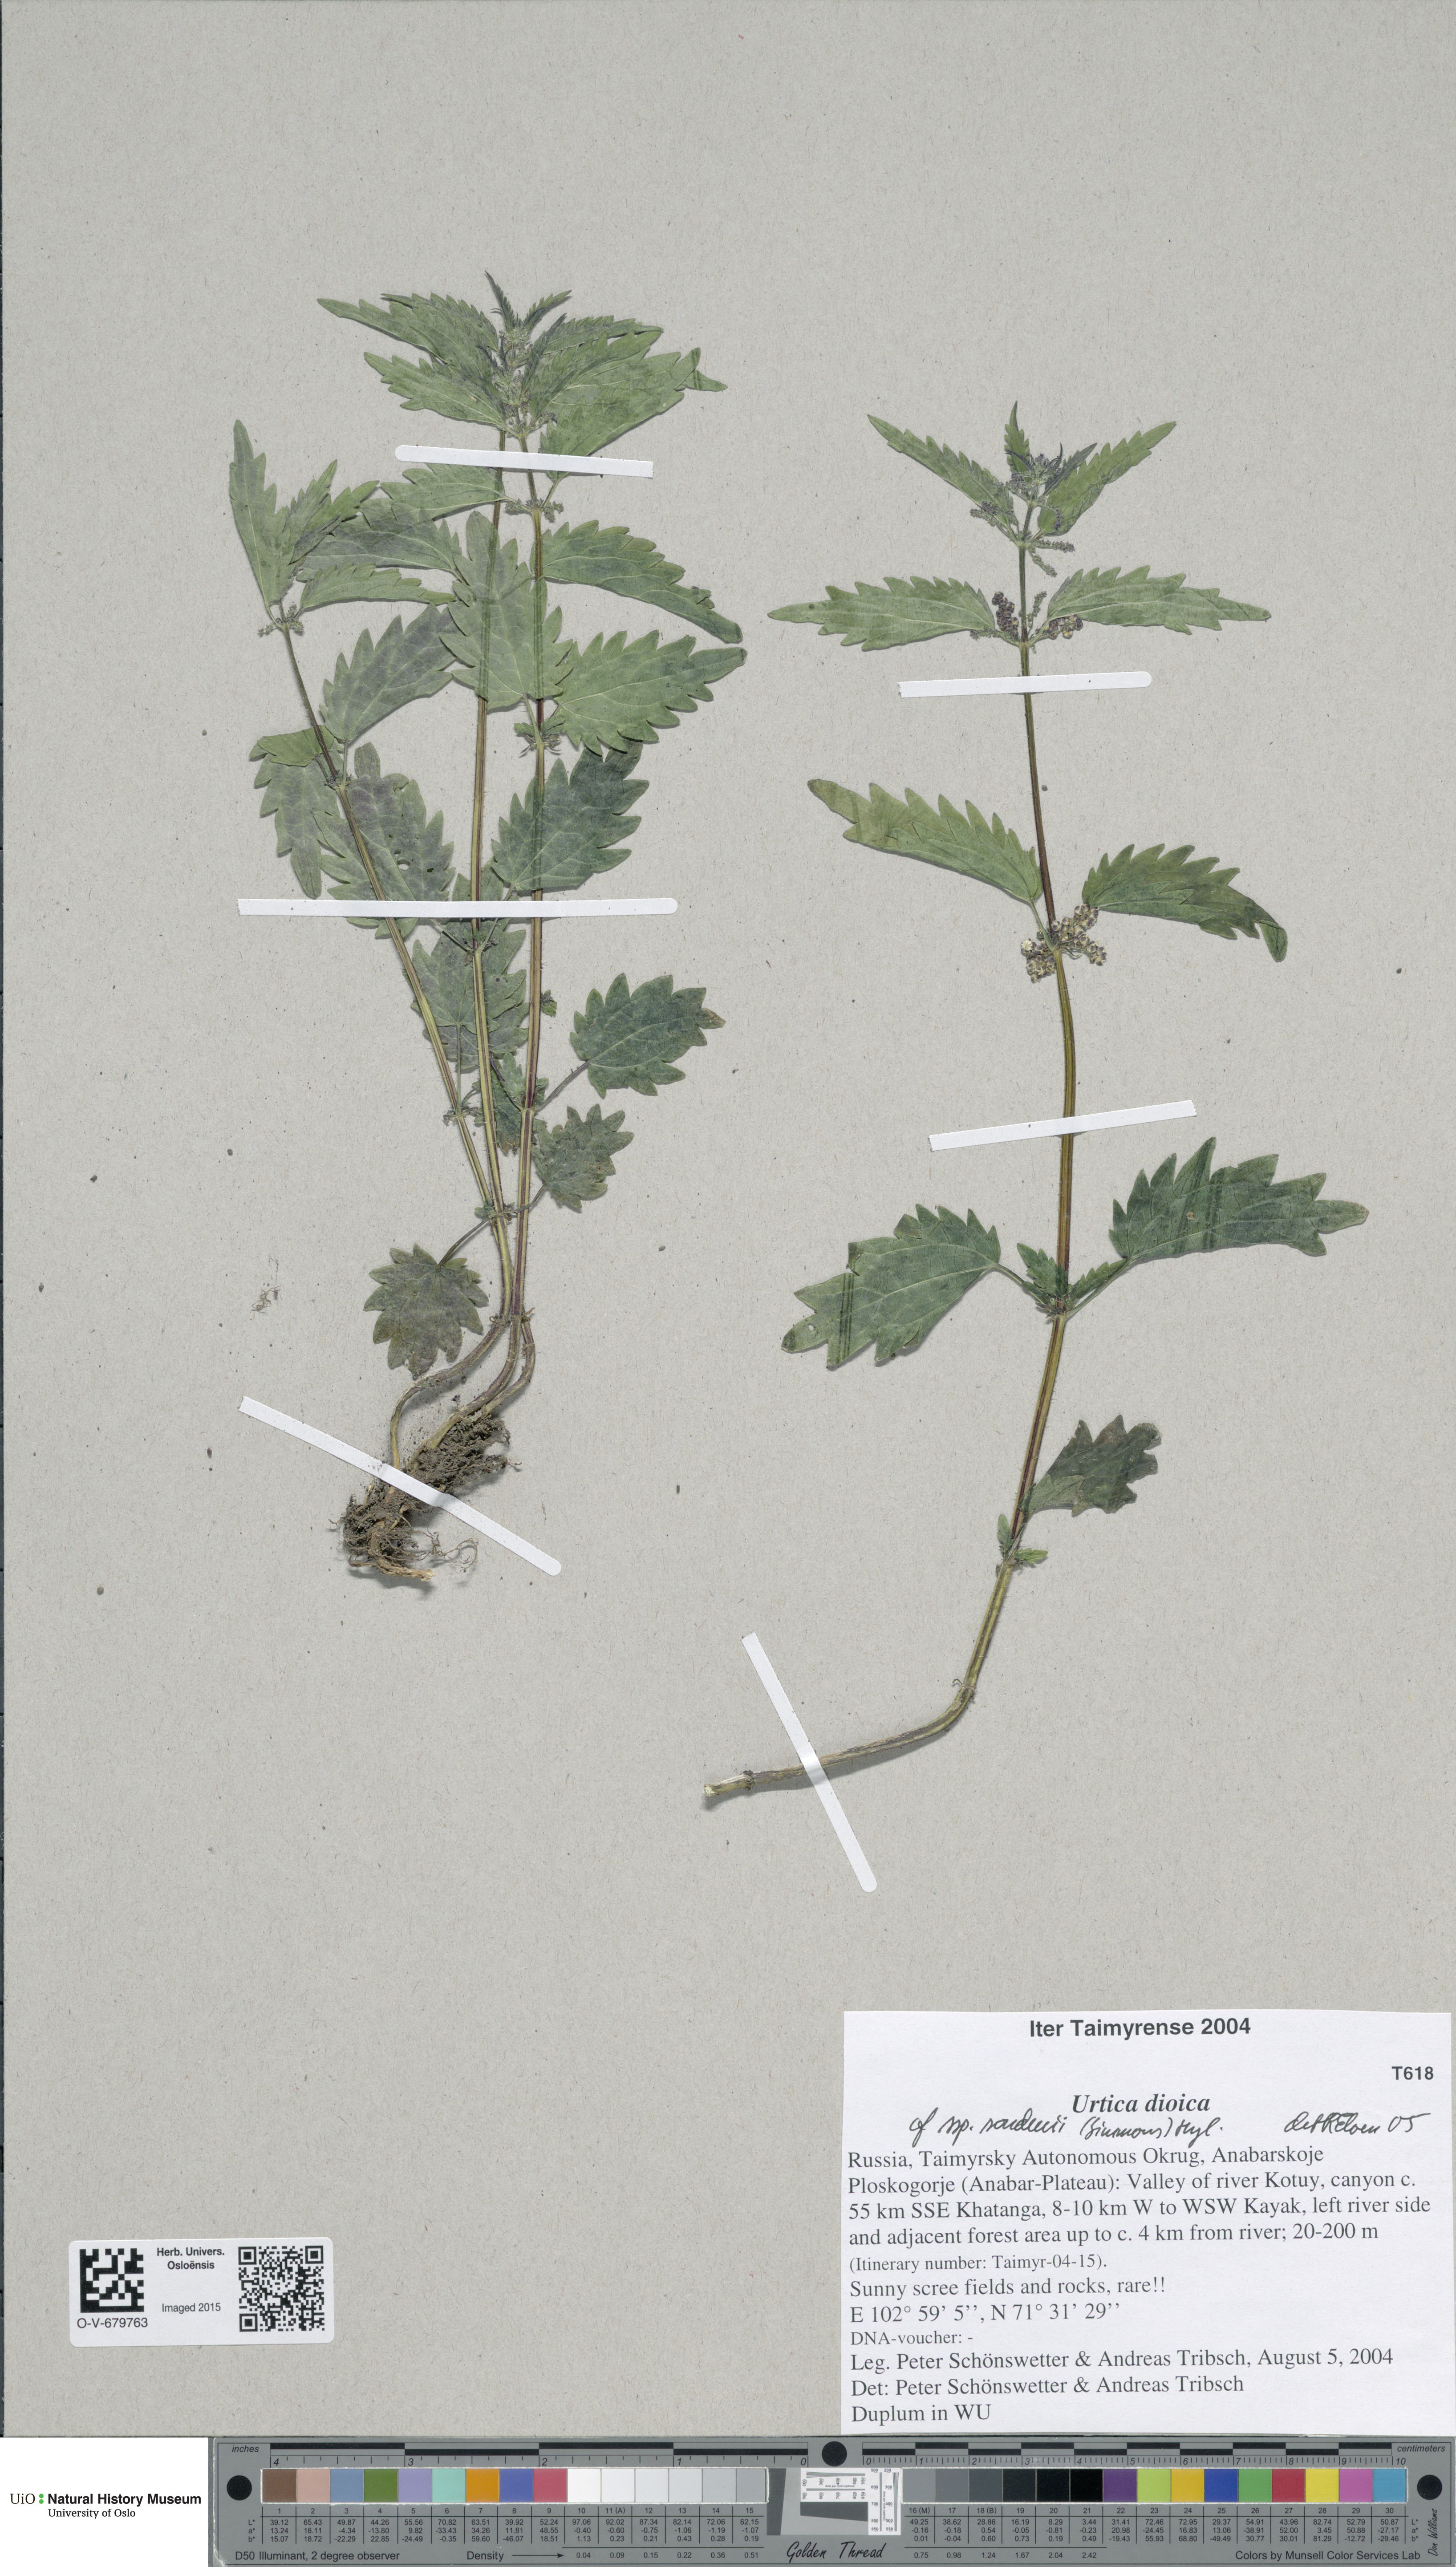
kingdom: Plantae
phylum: Tracheophyta
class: Magnoliopsida
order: Rosales
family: Urticaceae
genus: Urtica
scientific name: Urtica dioica
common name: Common nettle
